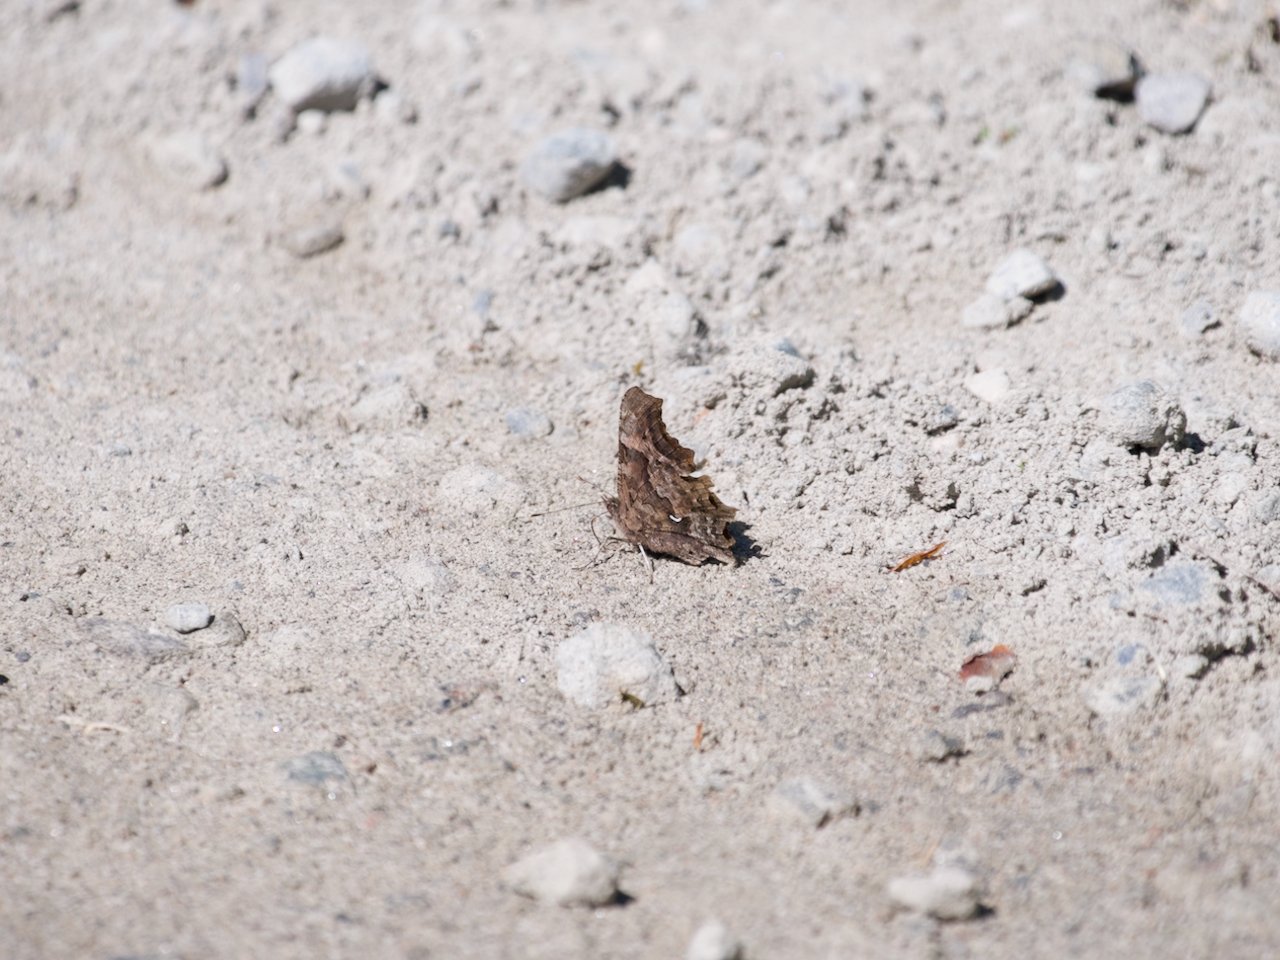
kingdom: Animalia
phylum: Arthropoda
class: Insecta
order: Lepidoptera
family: Nymphalidae
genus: Polygonia
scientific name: Polygonia faunus
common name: Green Comma
